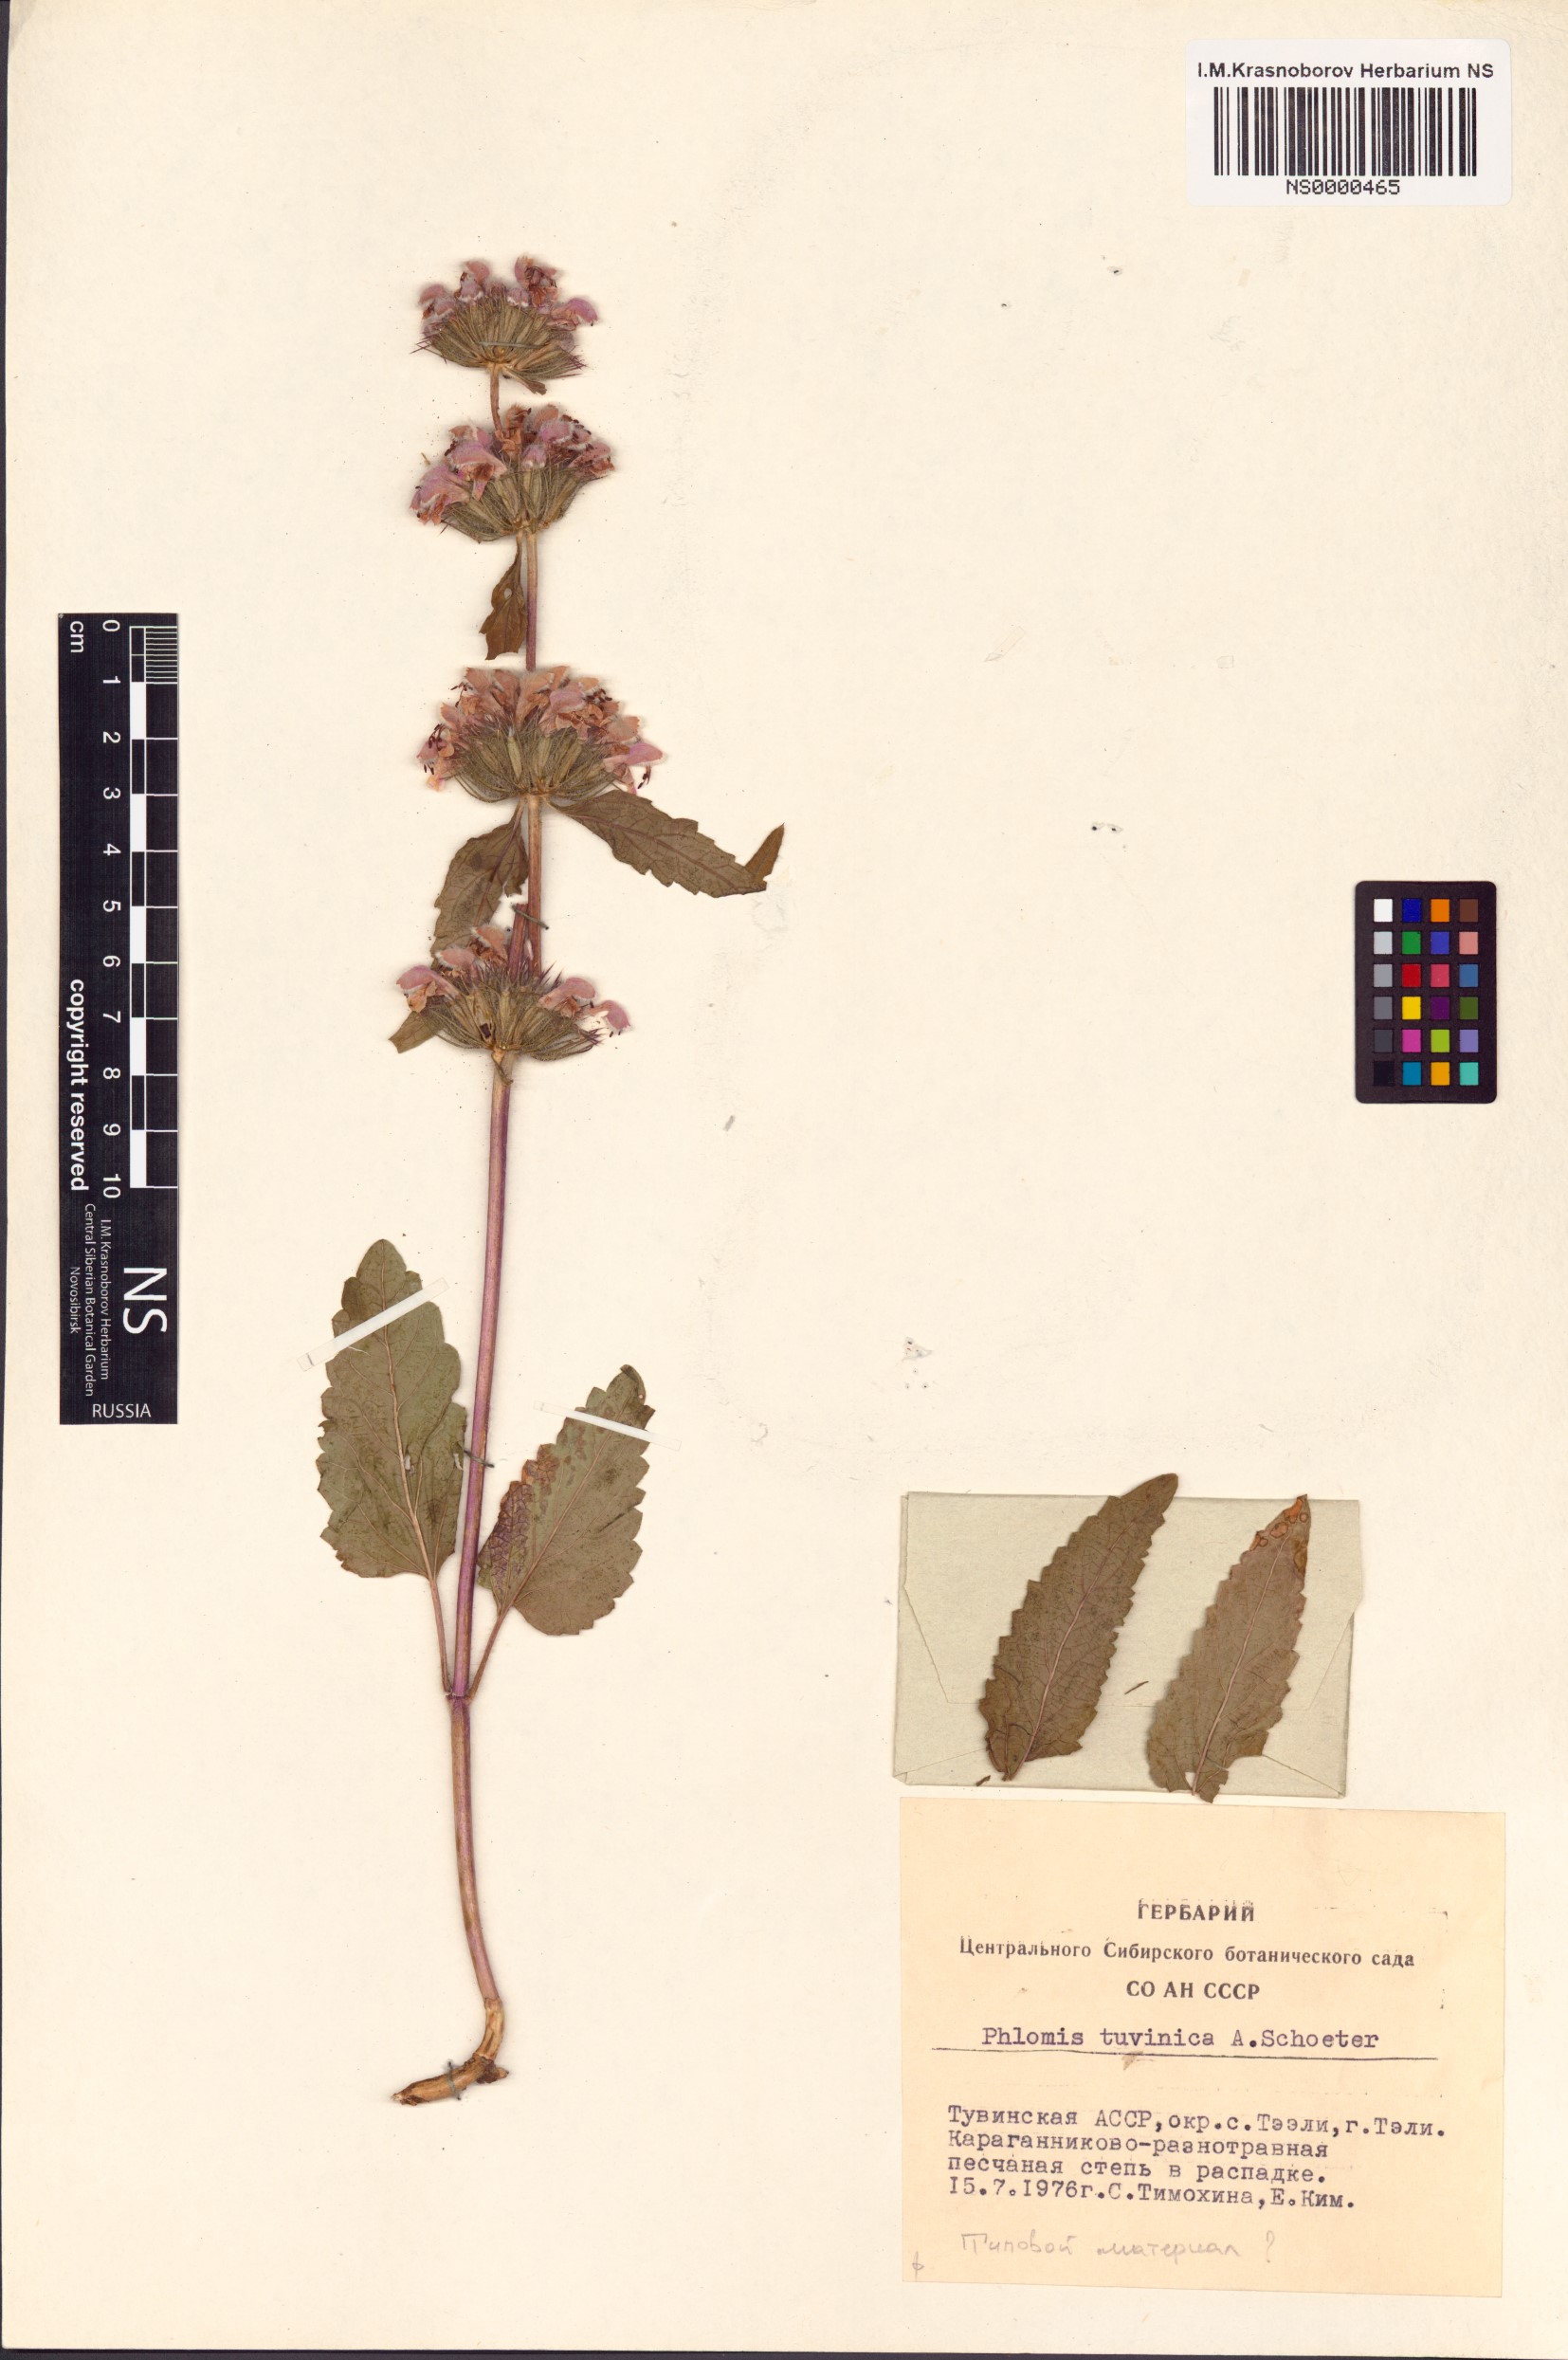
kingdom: Plantae
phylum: Tracheophyta
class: Magnoliopsida
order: Lamiales
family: Lamiaceae
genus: Phlomoides
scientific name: Phlomoides tuvinica
